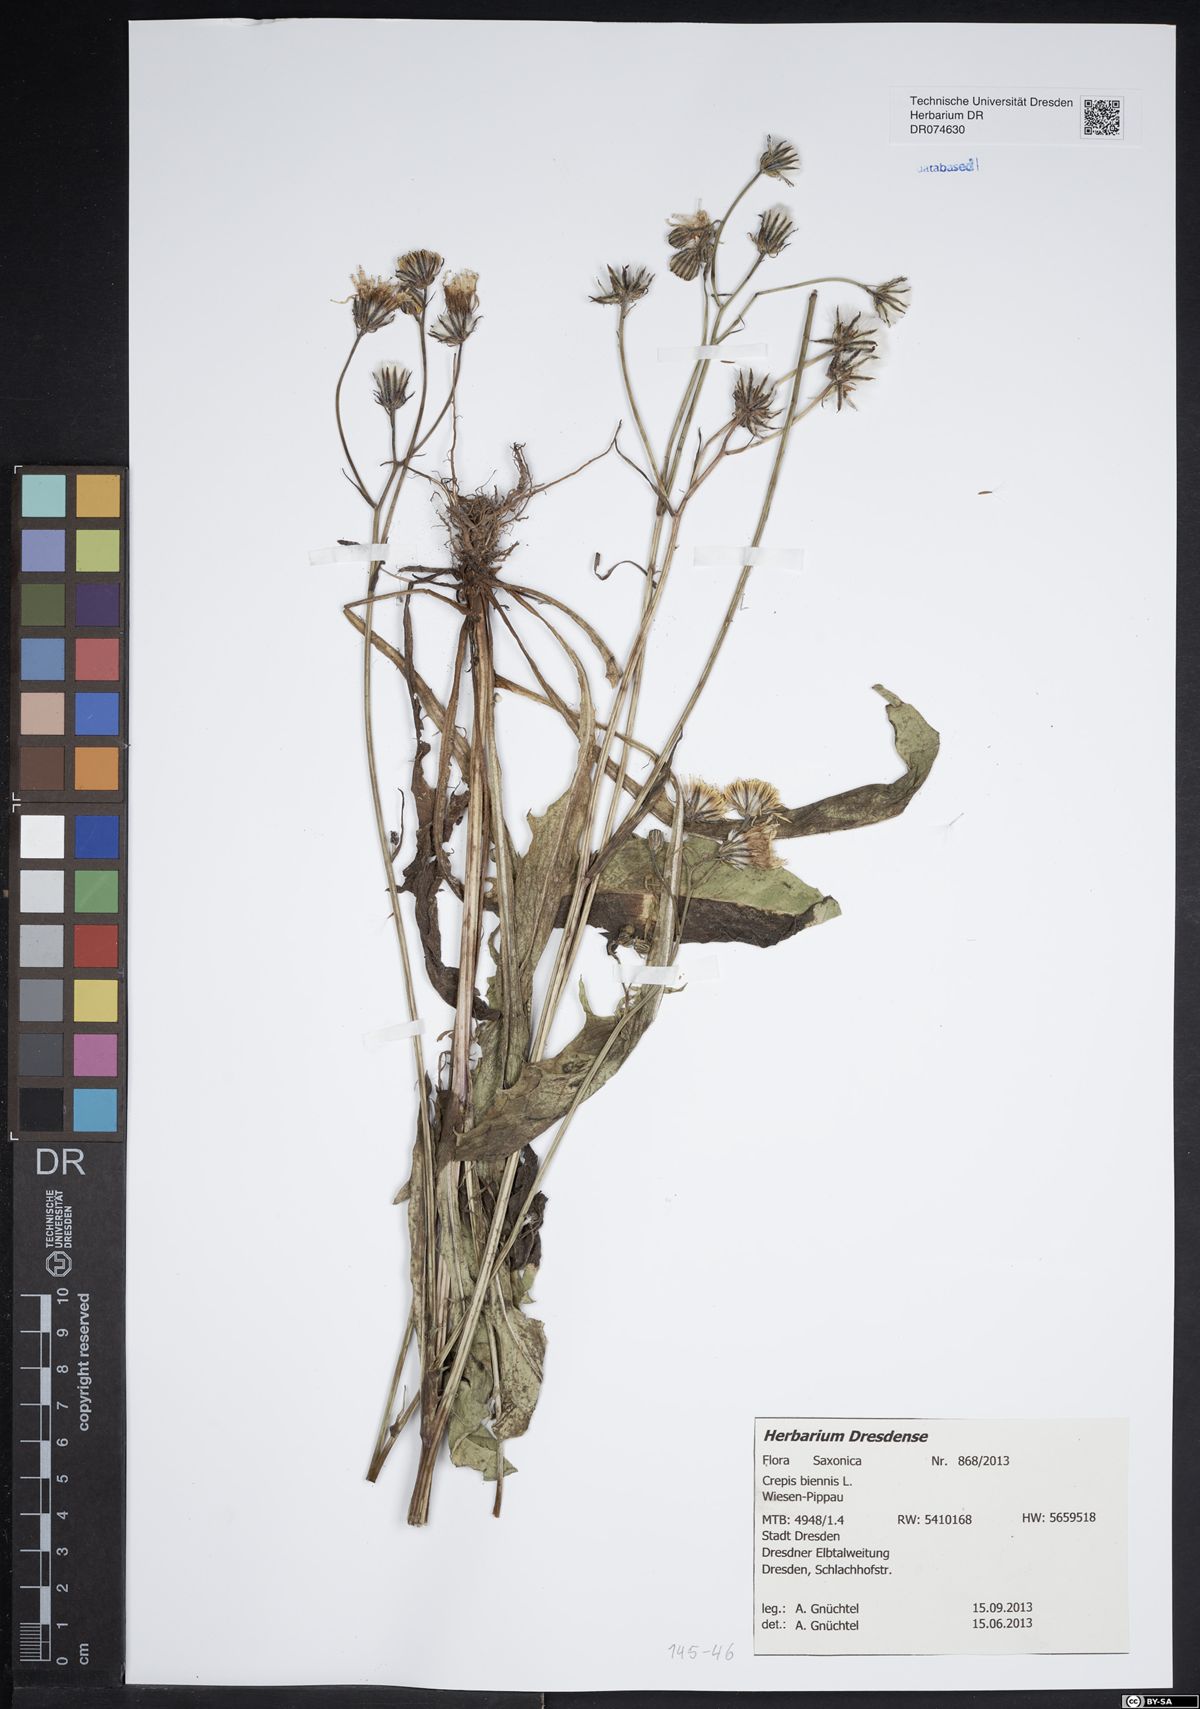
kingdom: Plantae
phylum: Tracheophyta
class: Magnoliopsida
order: Asterales
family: Asteraceae
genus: Crepis
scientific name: Crepis biennis
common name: Rough hawk's-beard
